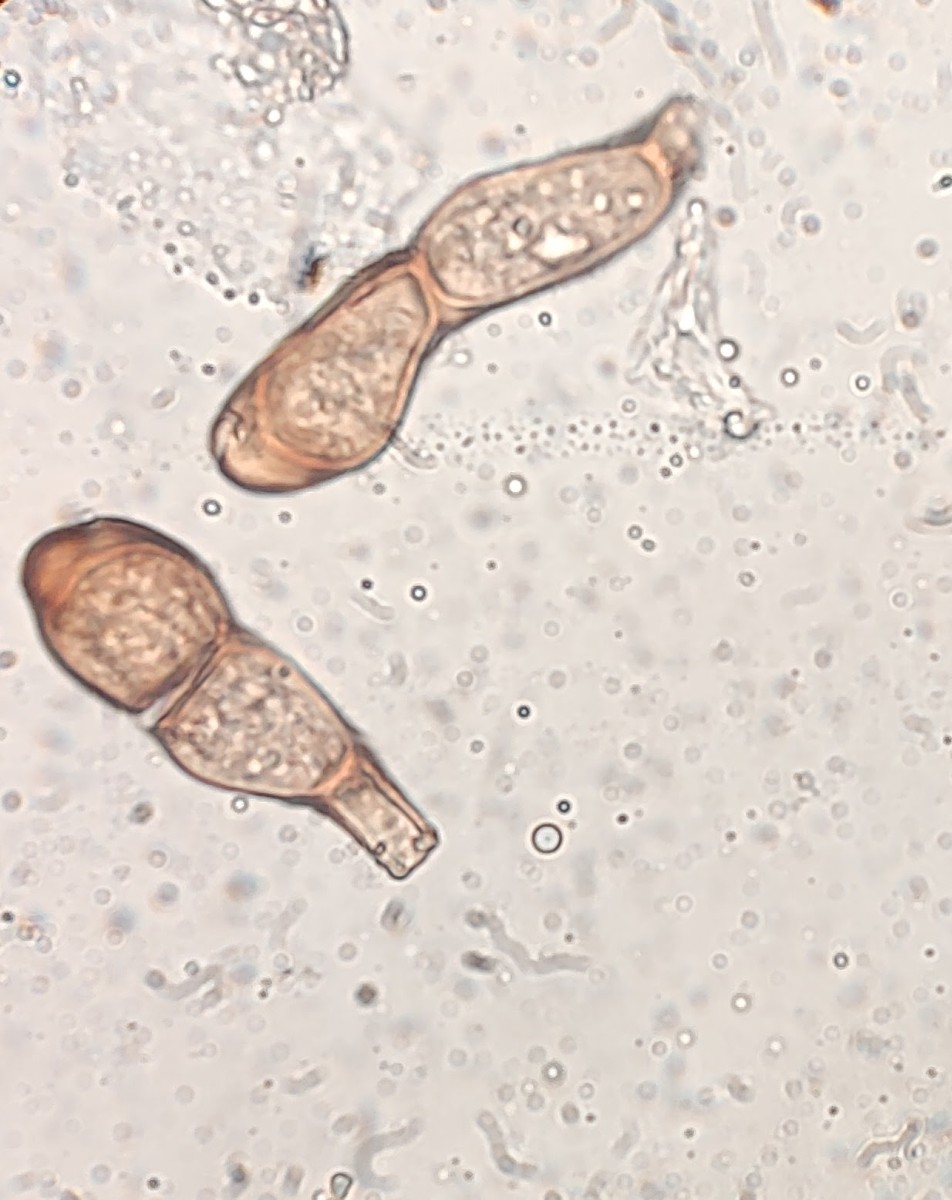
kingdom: Fungi
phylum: Basidiomycota
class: Pucciniomycetes
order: Pucciniales
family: Pucciniaceae
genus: Puccinia
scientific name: Puccinia caricina
